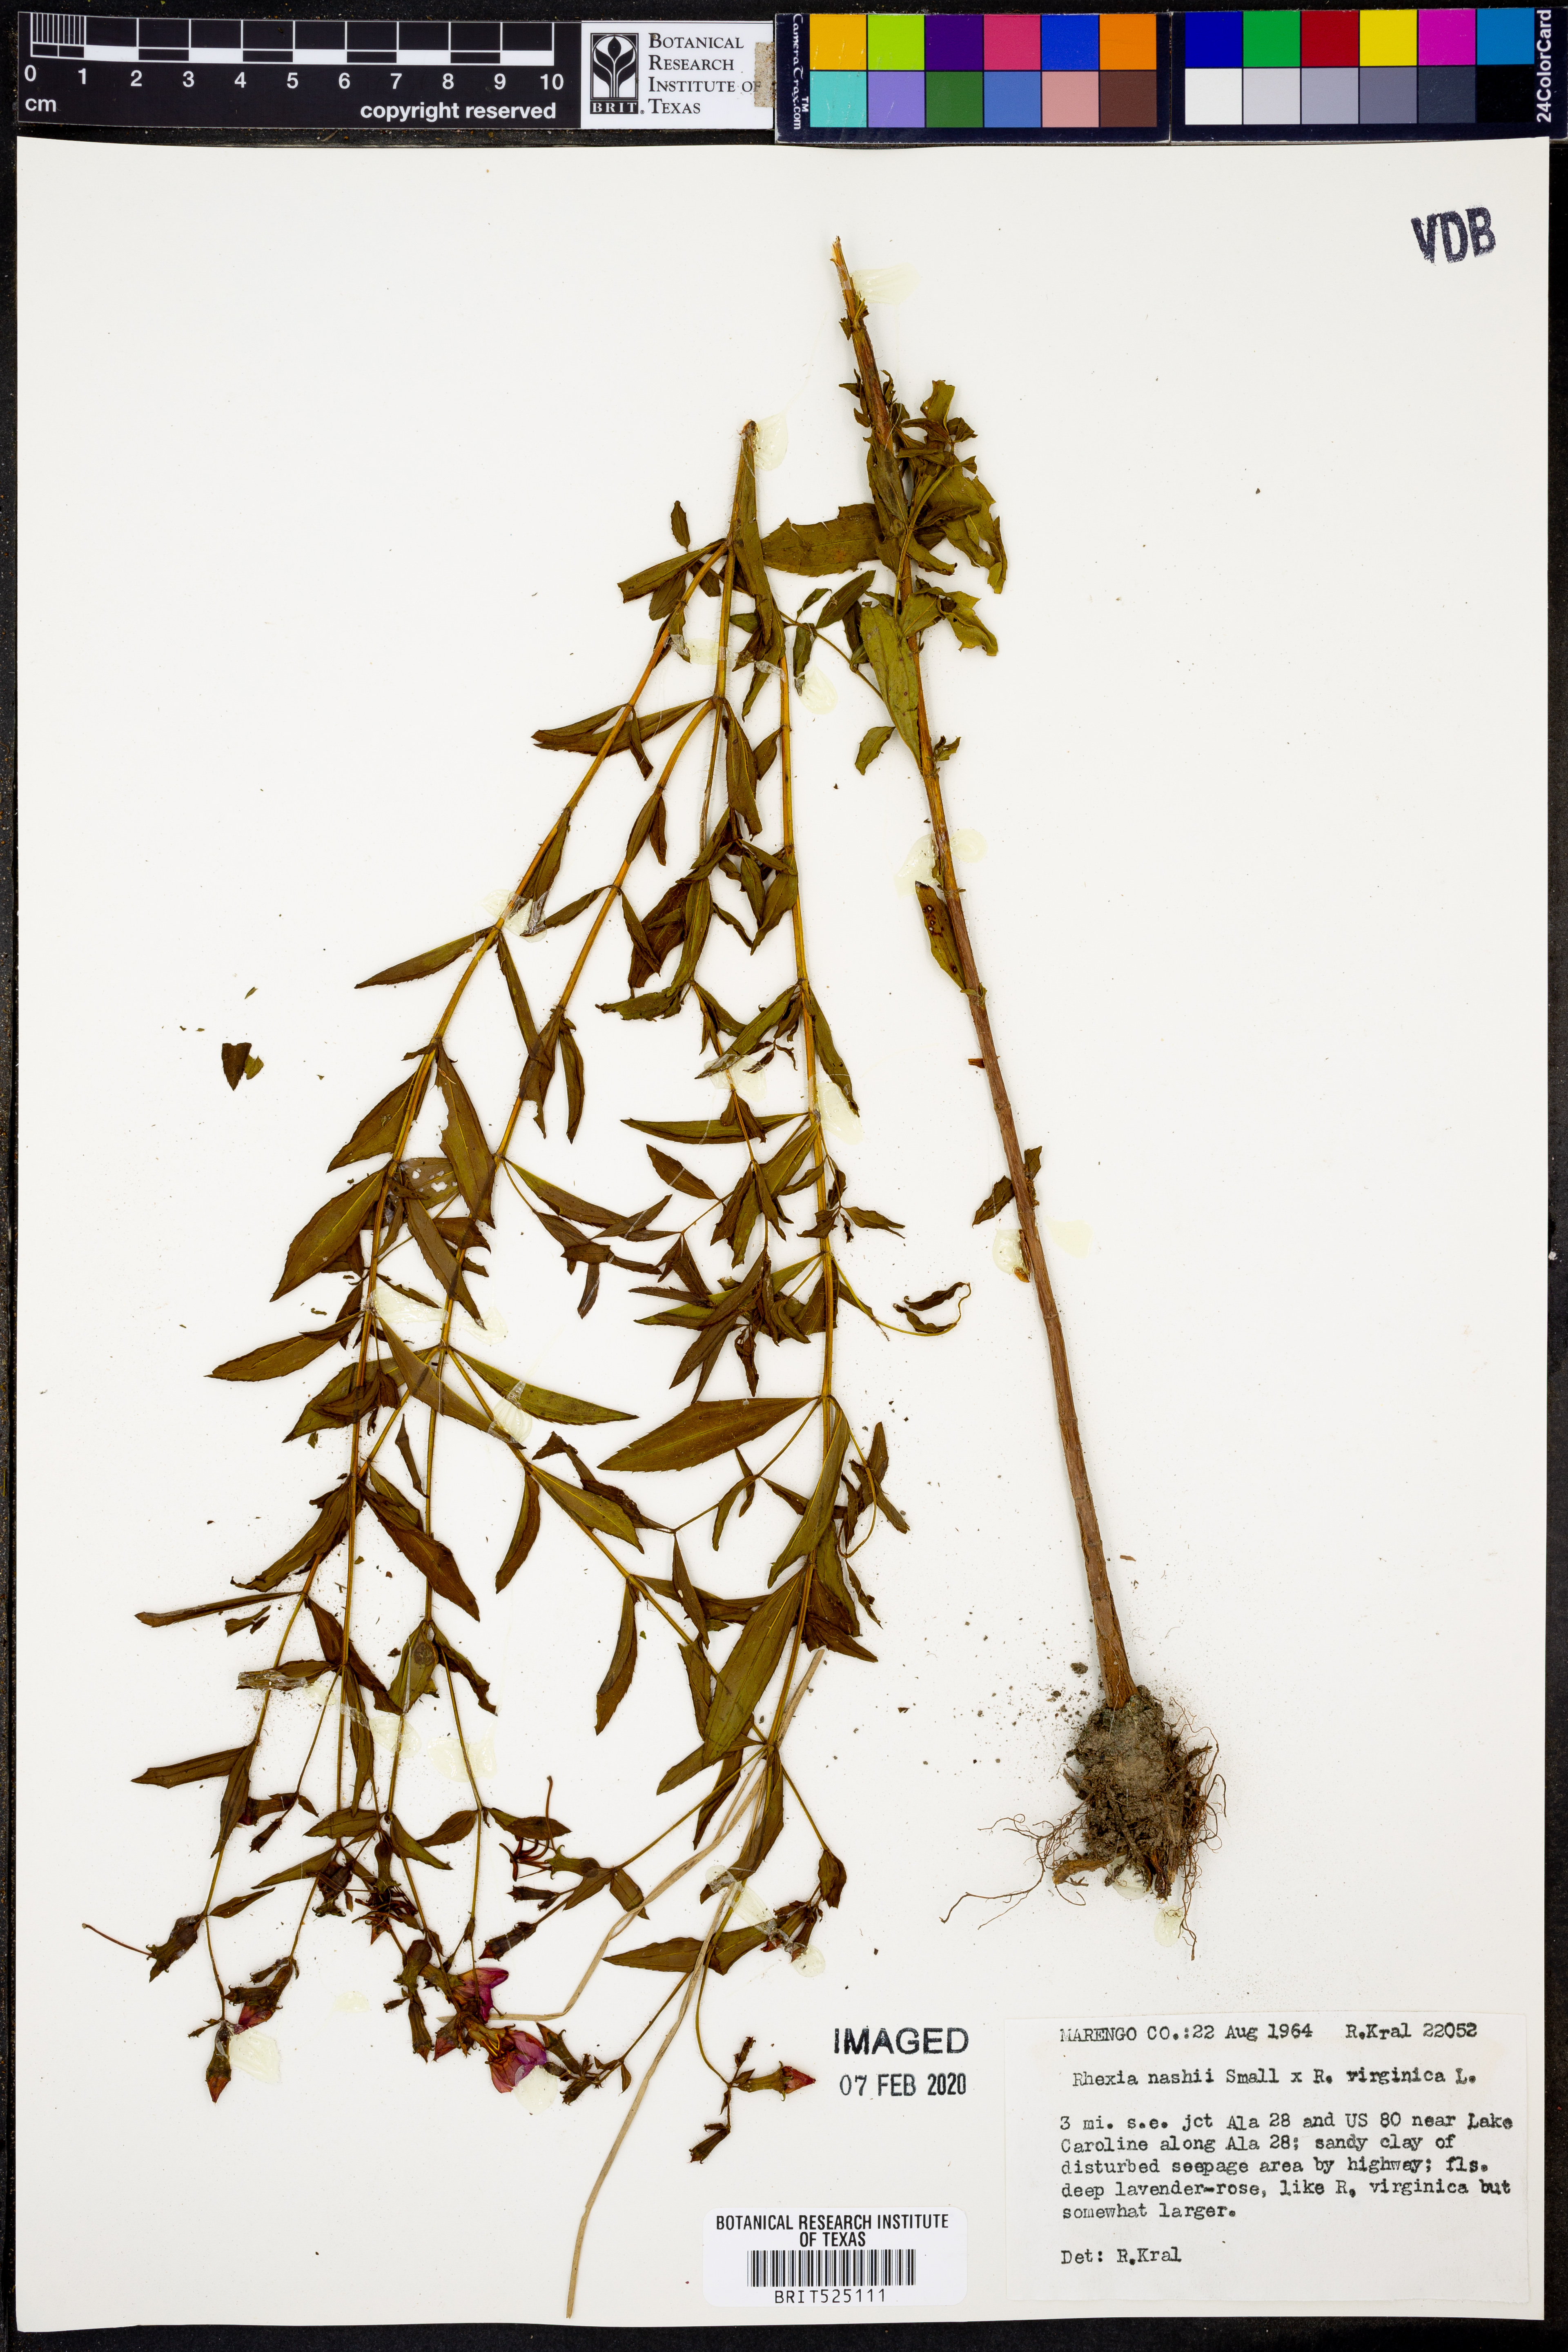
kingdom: Plantae
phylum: Tracheophyta
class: Magnoliopsida
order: Myrtales
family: Melastomataceae
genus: Rhexia
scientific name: Rhexia nashii
